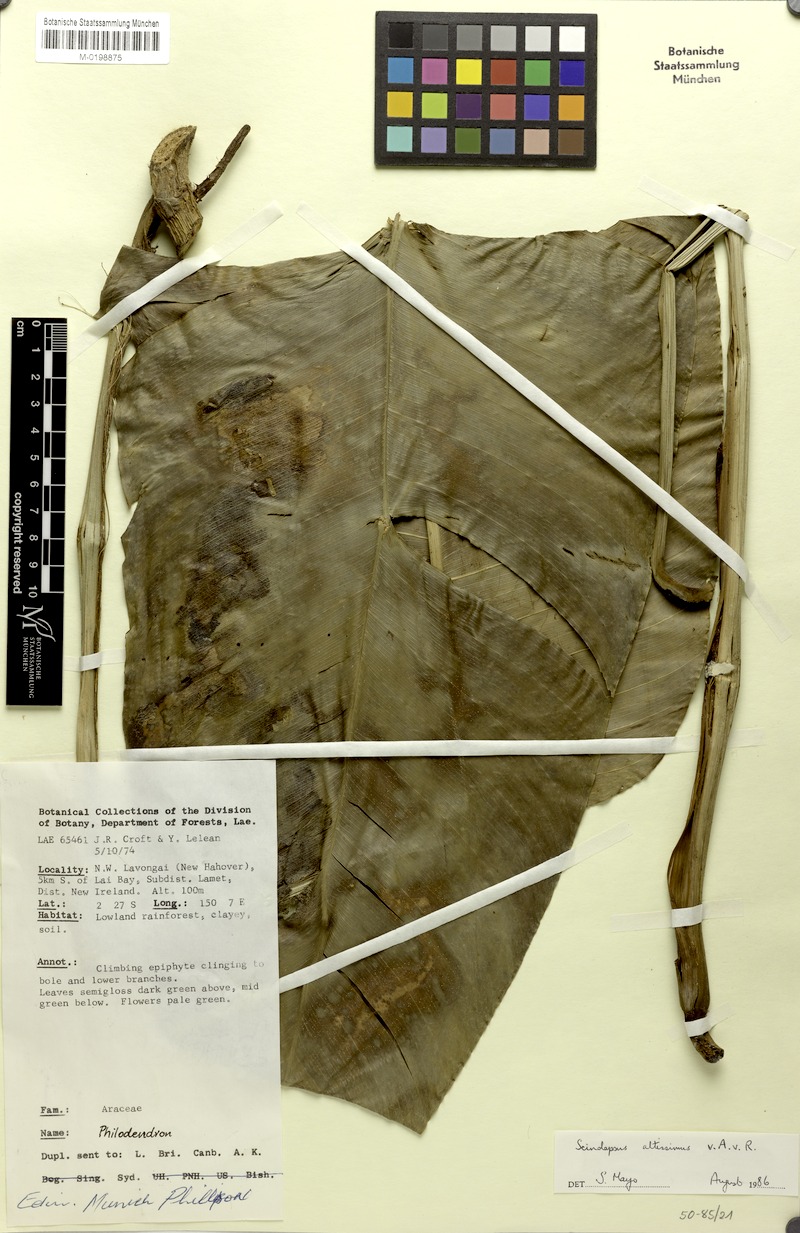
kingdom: Plantae
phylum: Tracheophyta
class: Liliopsida
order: Alismatales
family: Araceae
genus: Scindapsus
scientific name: Scindapsus altissimus
